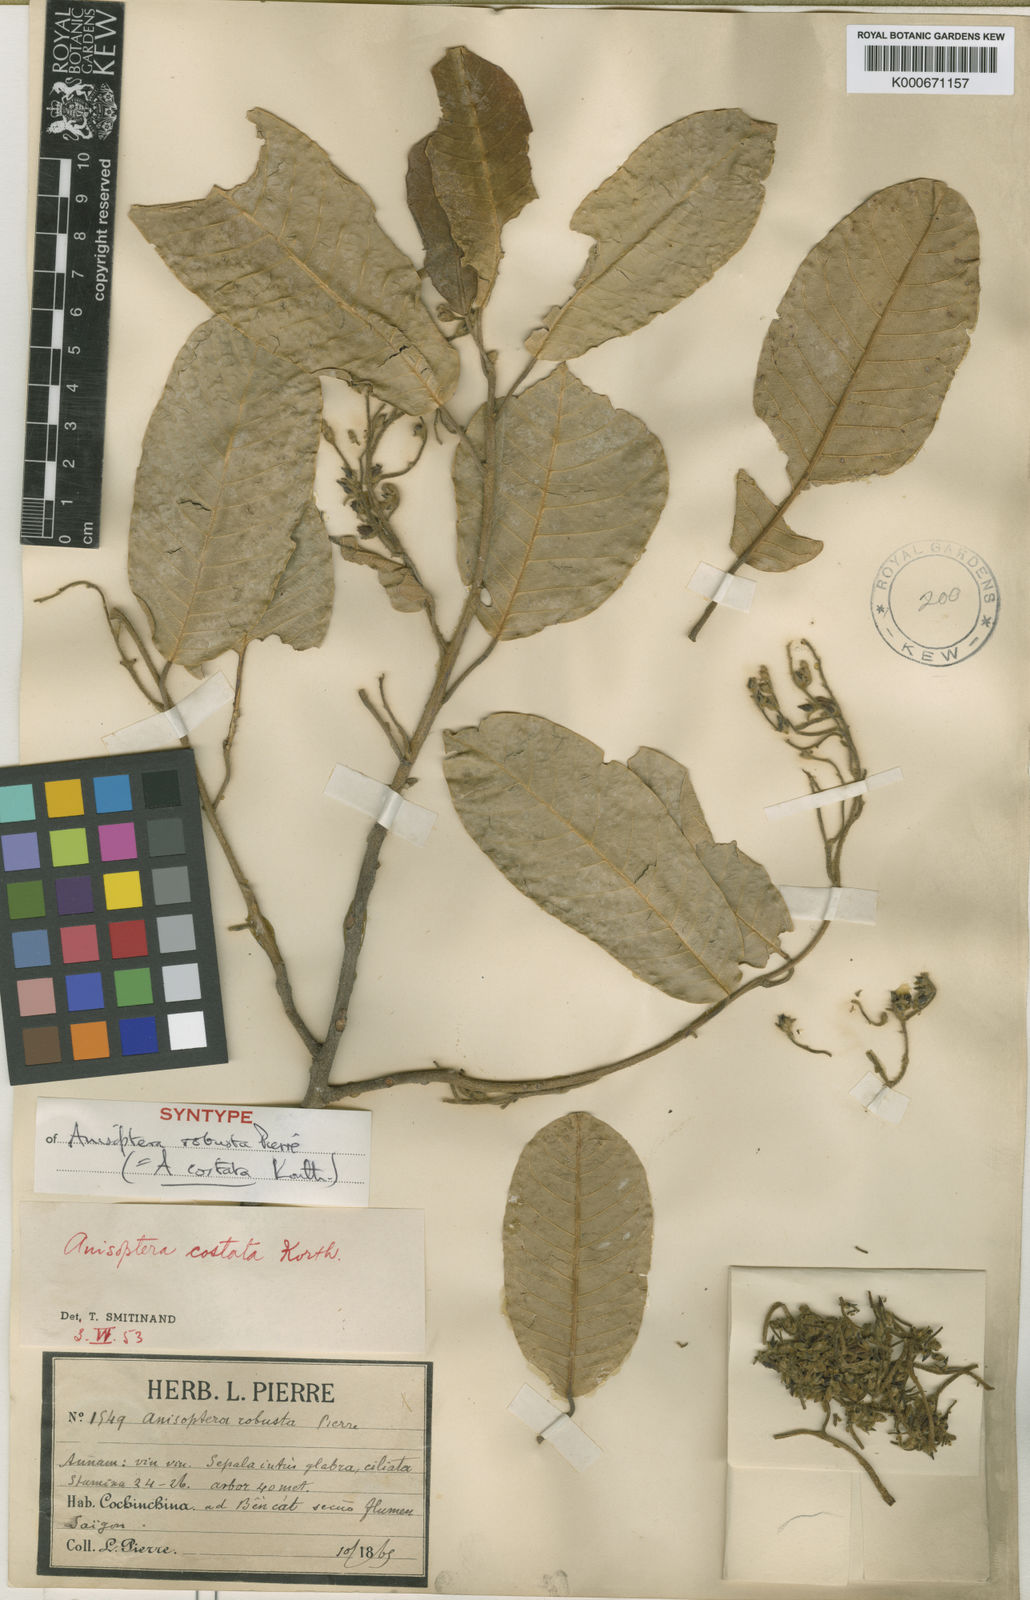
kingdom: Plantae
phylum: Tracheophyta
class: Magnoliopsida
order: Malvales
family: Dipterocarpaceae
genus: Anisoptera
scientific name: Anisoptera costata
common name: Mersawa
